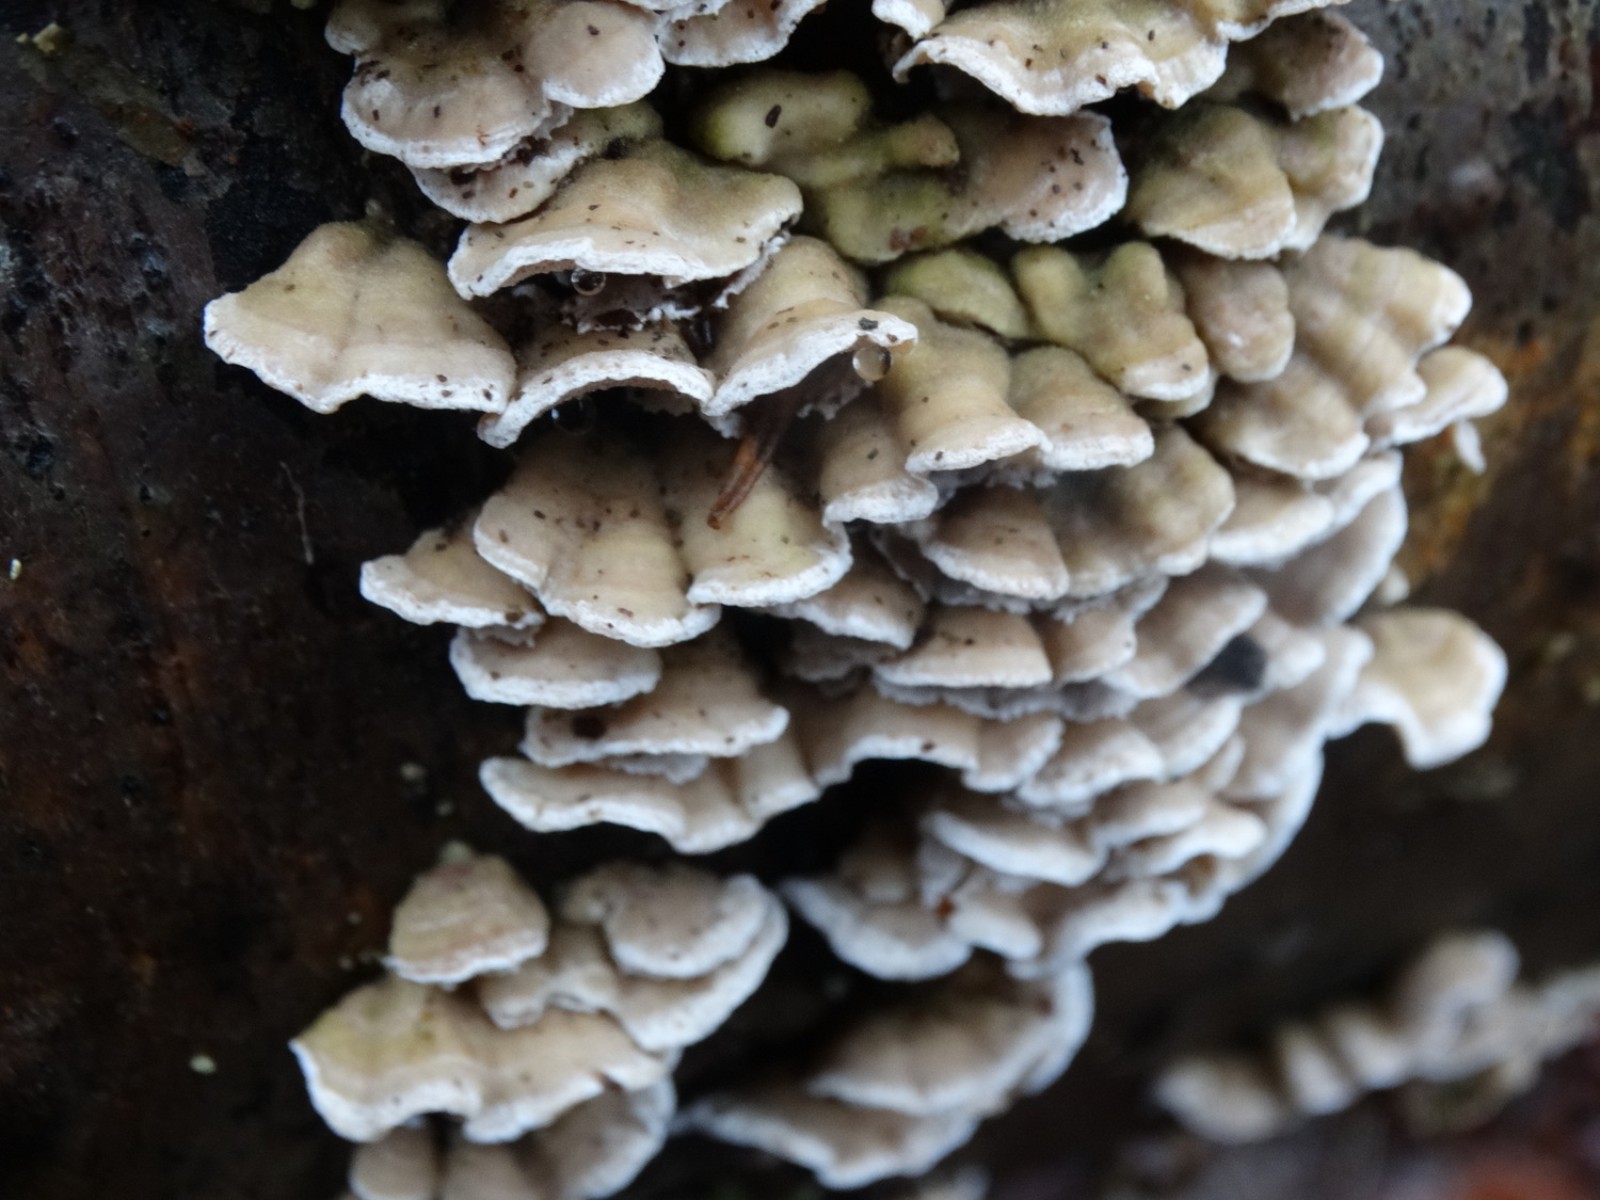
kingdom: Fungi
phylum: Basidiomycota
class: Agaricomycetes
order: Polyporales
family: Incrustoporiaceae
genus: Skeletocutis
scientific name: Skeletocutis carneogrisea
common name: rødgrå krystalporesvamp
